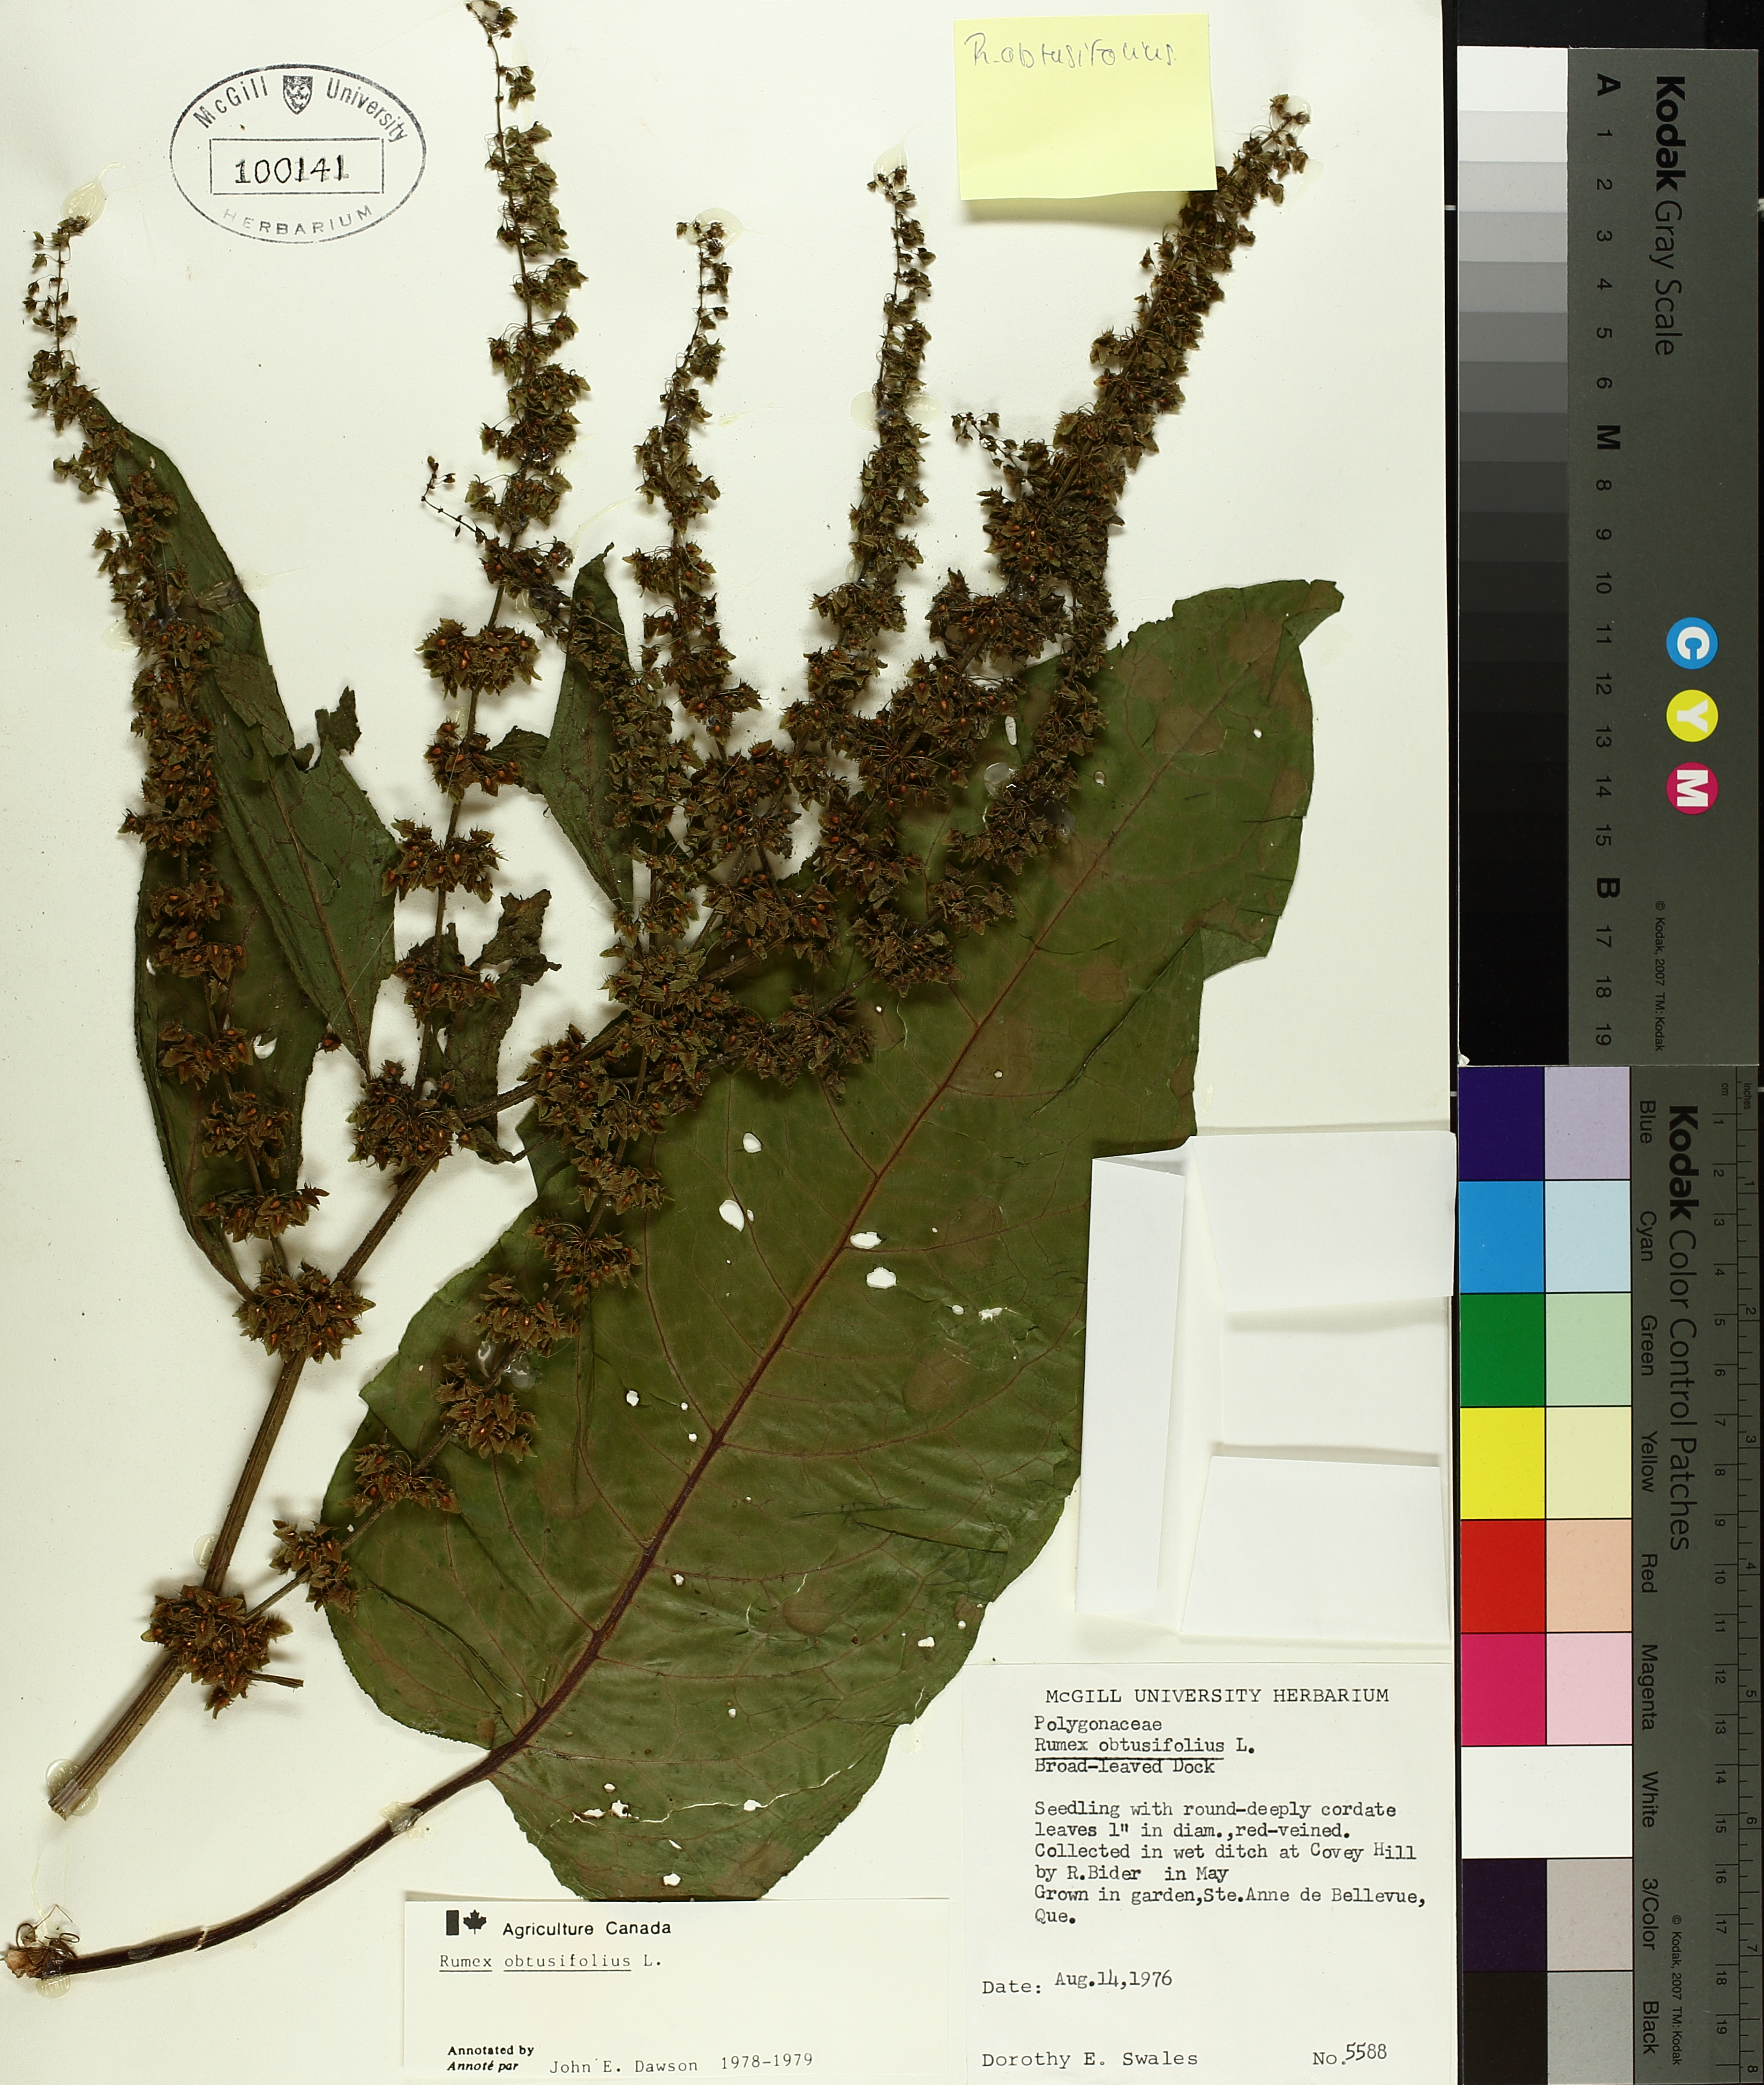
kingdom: Plantae
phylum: Tracheophyta
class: Magnoliopsida
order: Caryophyllales
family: Polygonaceae
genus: Rumex
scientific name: Rumex obtusifolius
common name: Bitter dock
